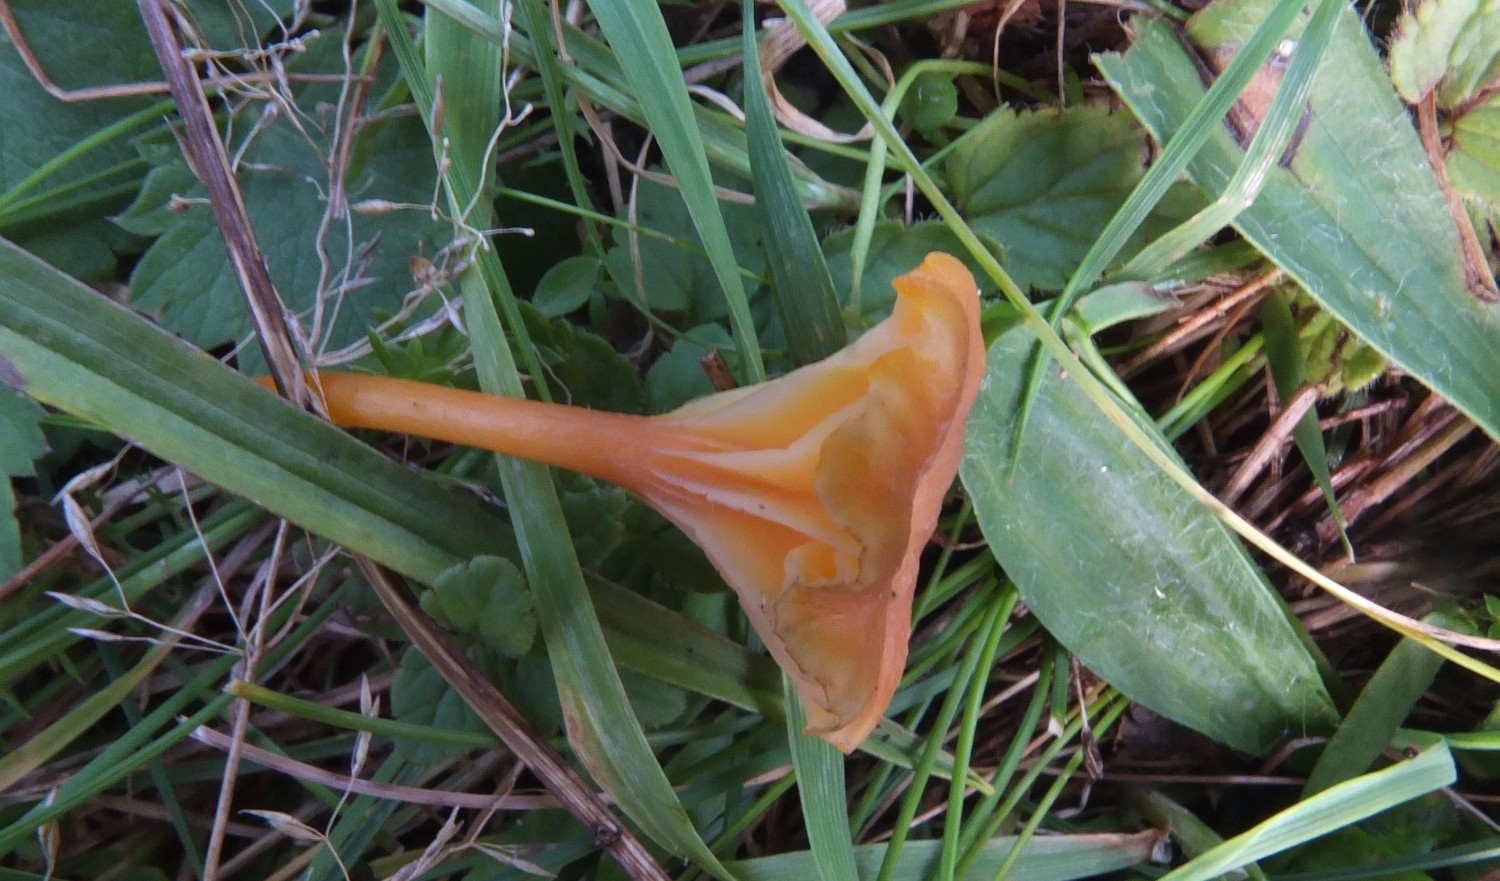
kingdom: Fungi
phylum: Basidiomycota
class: Agaricomycetes
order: Agaricales
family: Hygrophoraceae
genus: Hygrocybe
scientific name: Hygrocybe cantharellus
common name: kantarel-vokshat
